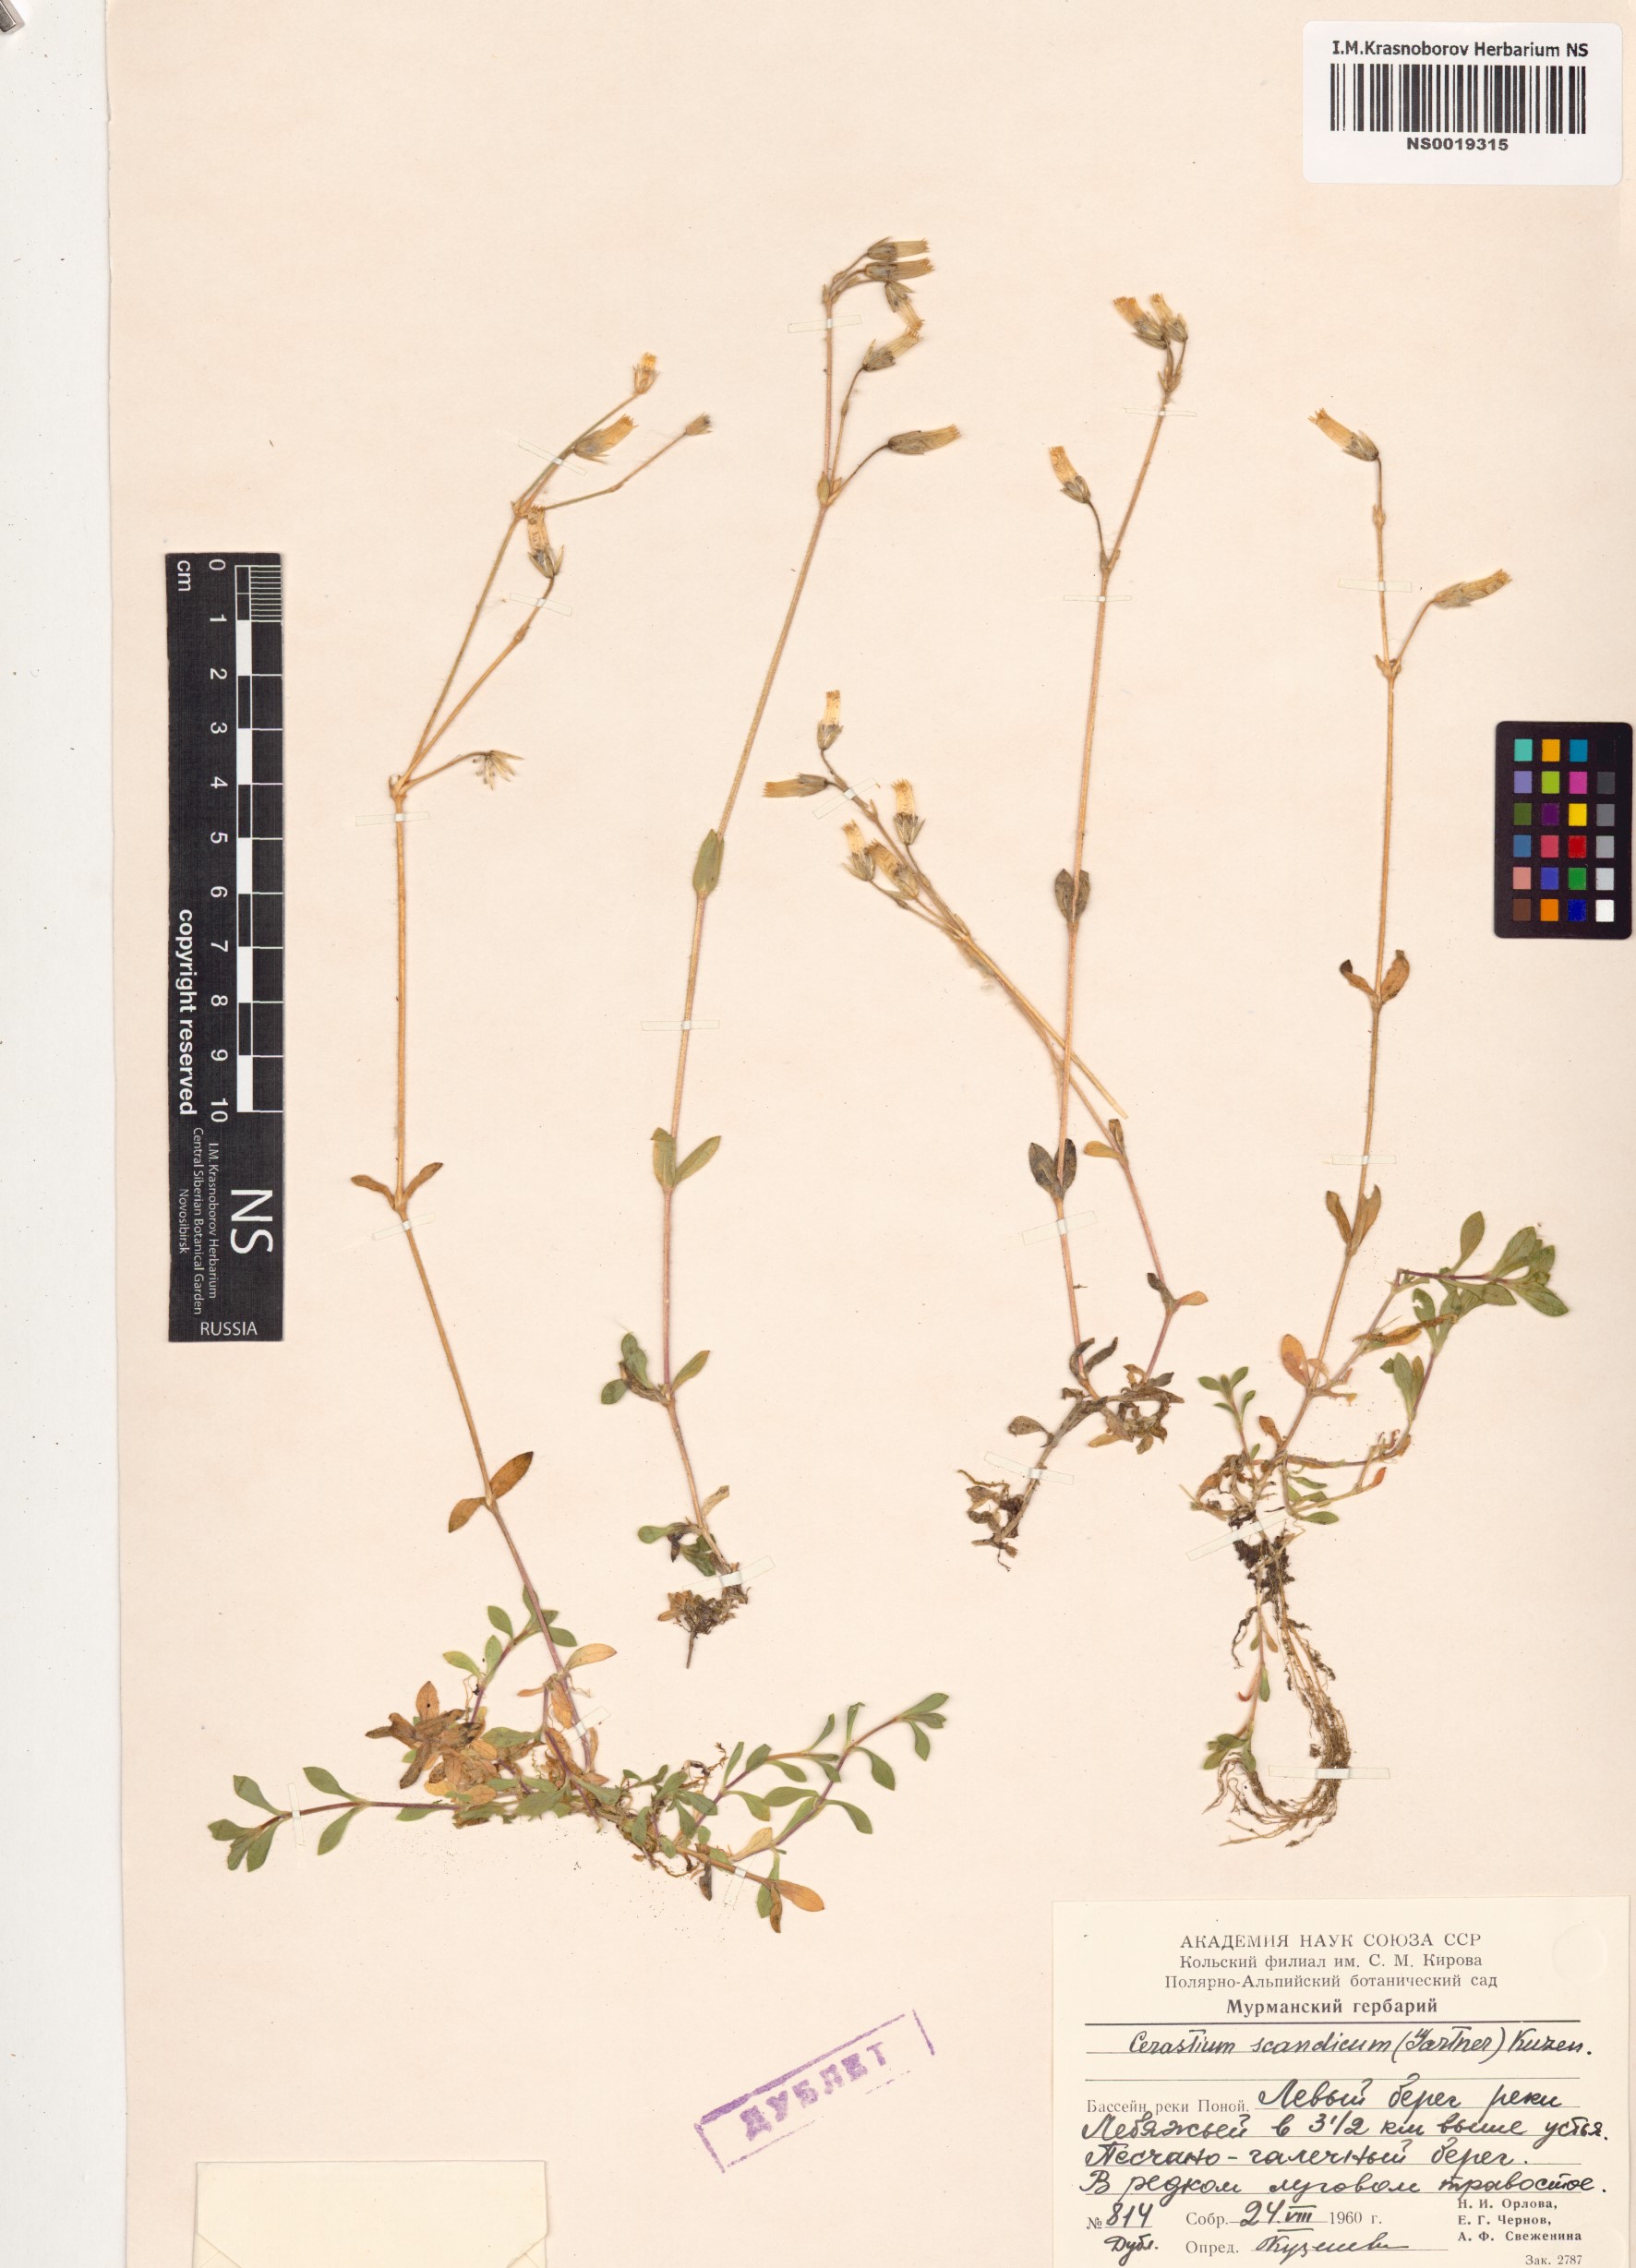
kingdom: Plantae
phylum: Tracheophyta
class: Magnoliopsida
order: Caryophyllales
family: Caryophyllaceae
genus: Cerastium
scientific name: Cerastium holosteoides
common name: Big chickweed
